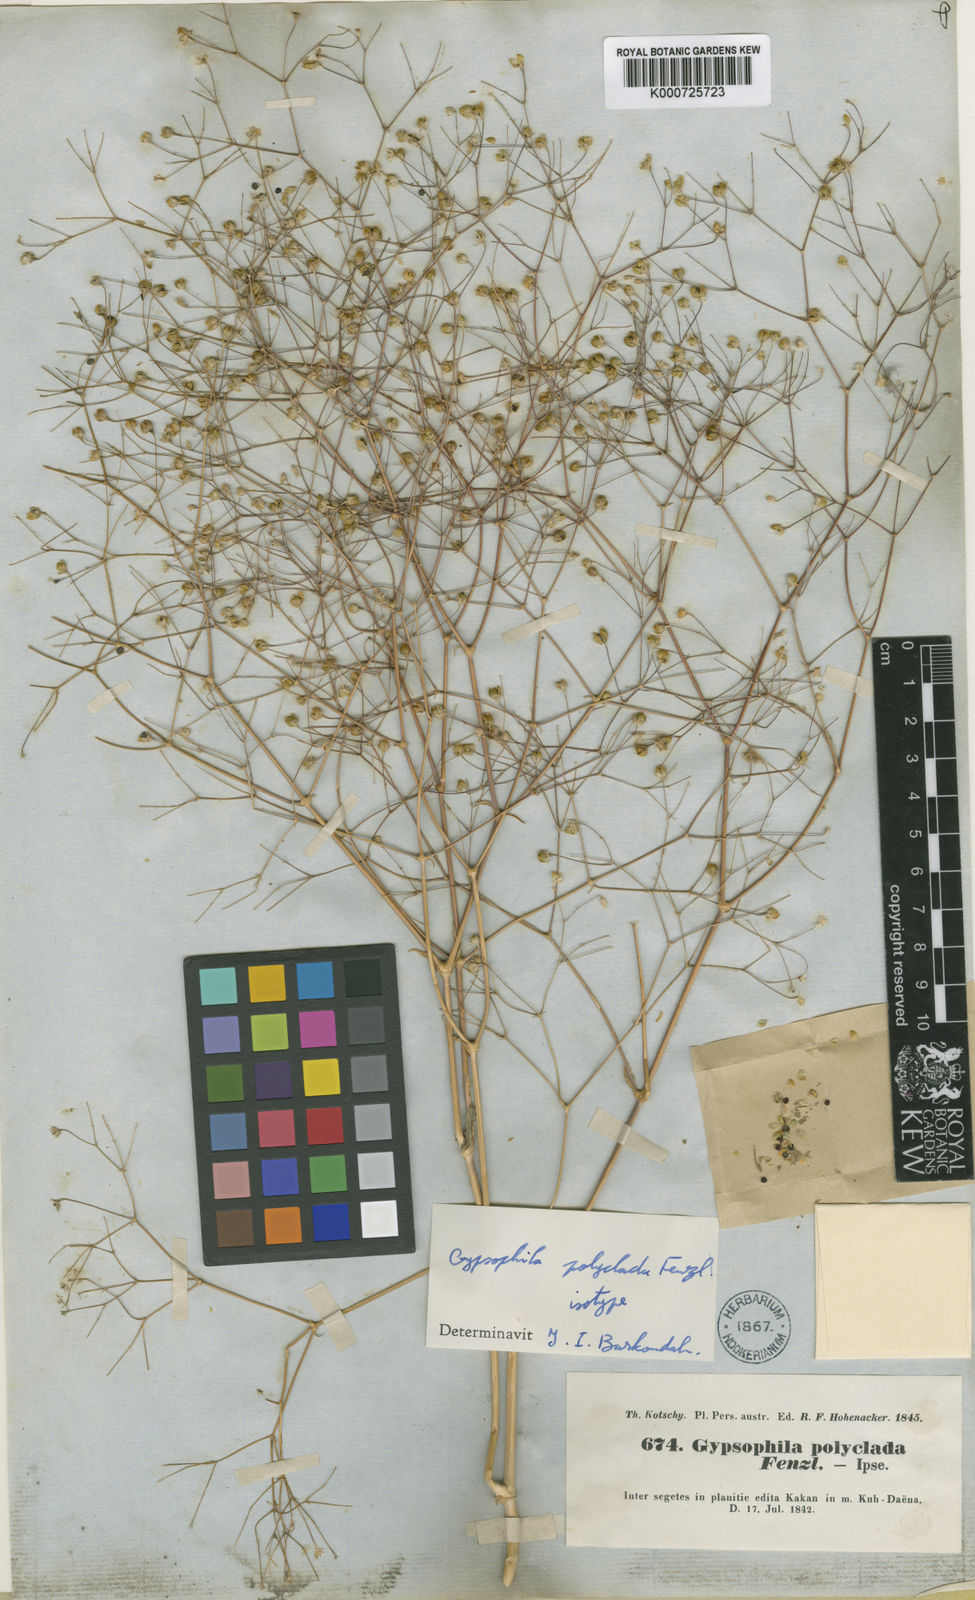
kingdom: Plantae
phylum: Tracheophyta
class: Magnoliopsida
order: Caryophyllales
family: Caryophyllaceae
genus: Gypsophila
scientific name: Gypsophila polyclada
